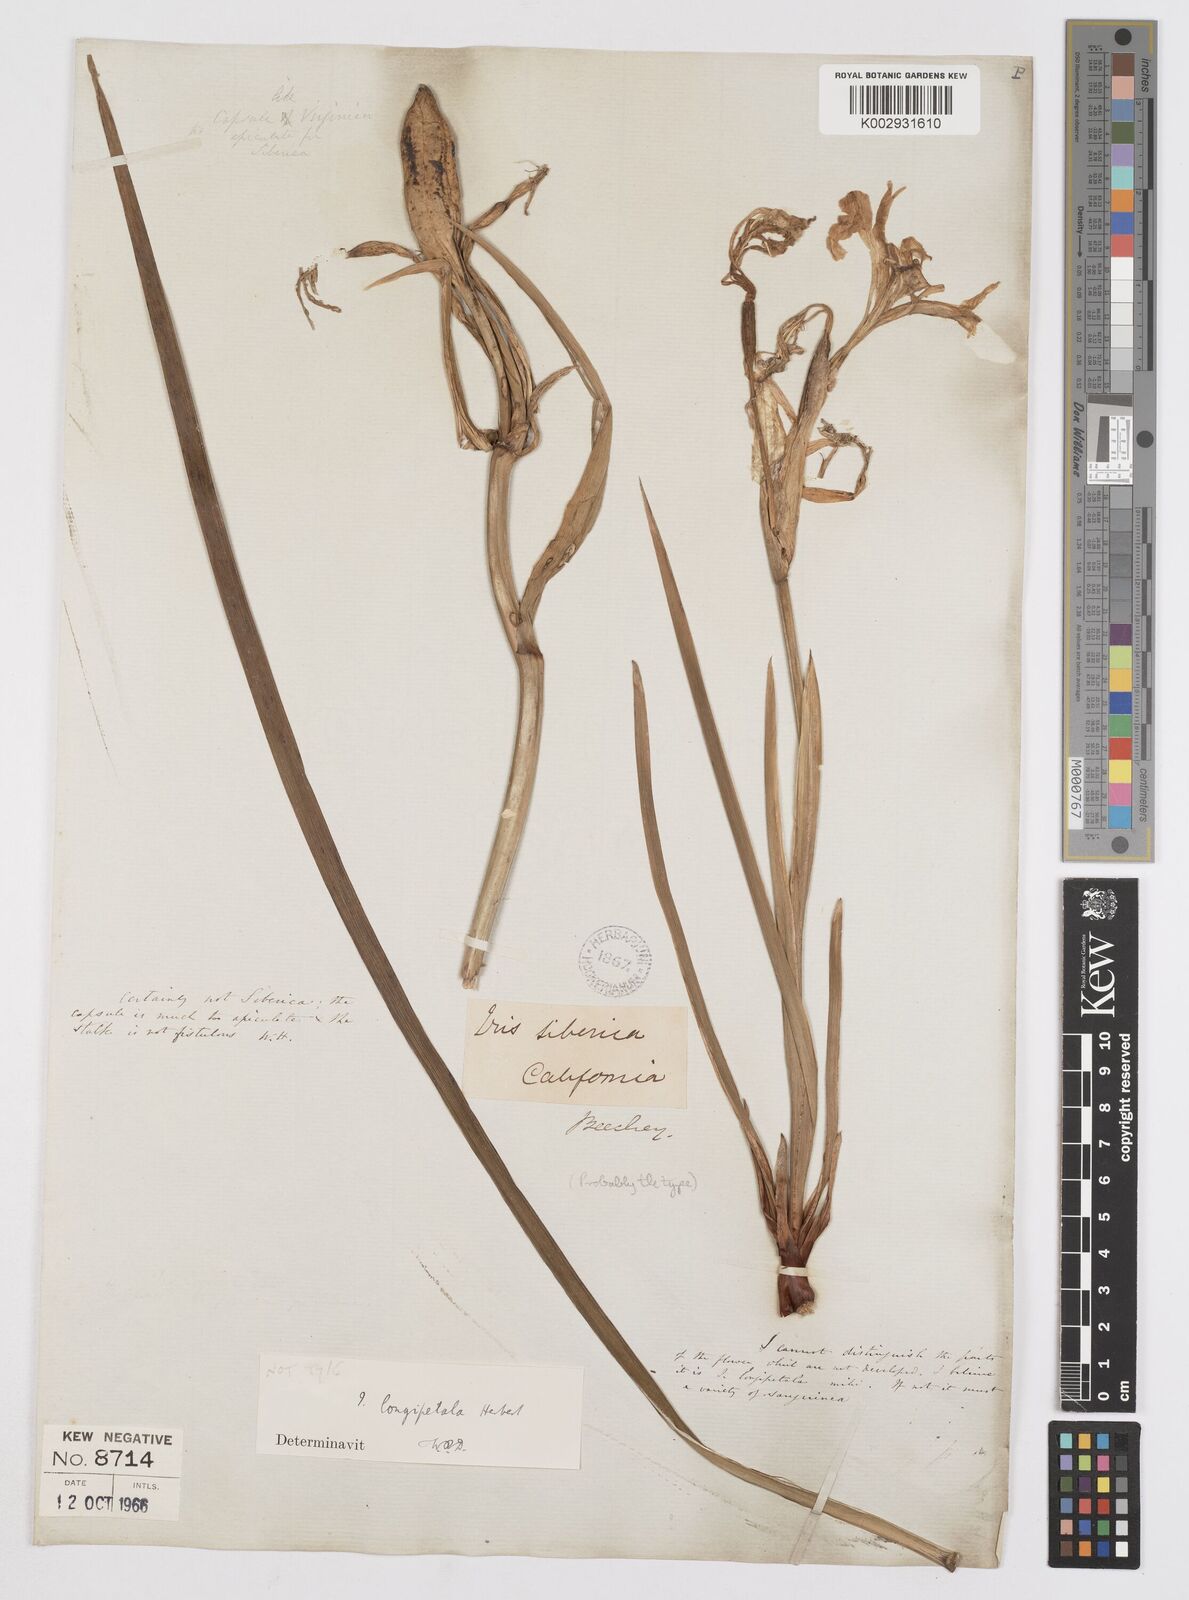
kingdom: Plantae
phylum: Tracheophyta
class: Liliopsida
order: Asparagales
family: Iridaceae
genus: Iris
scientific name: Iris longipetala
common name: Long-petal iris
